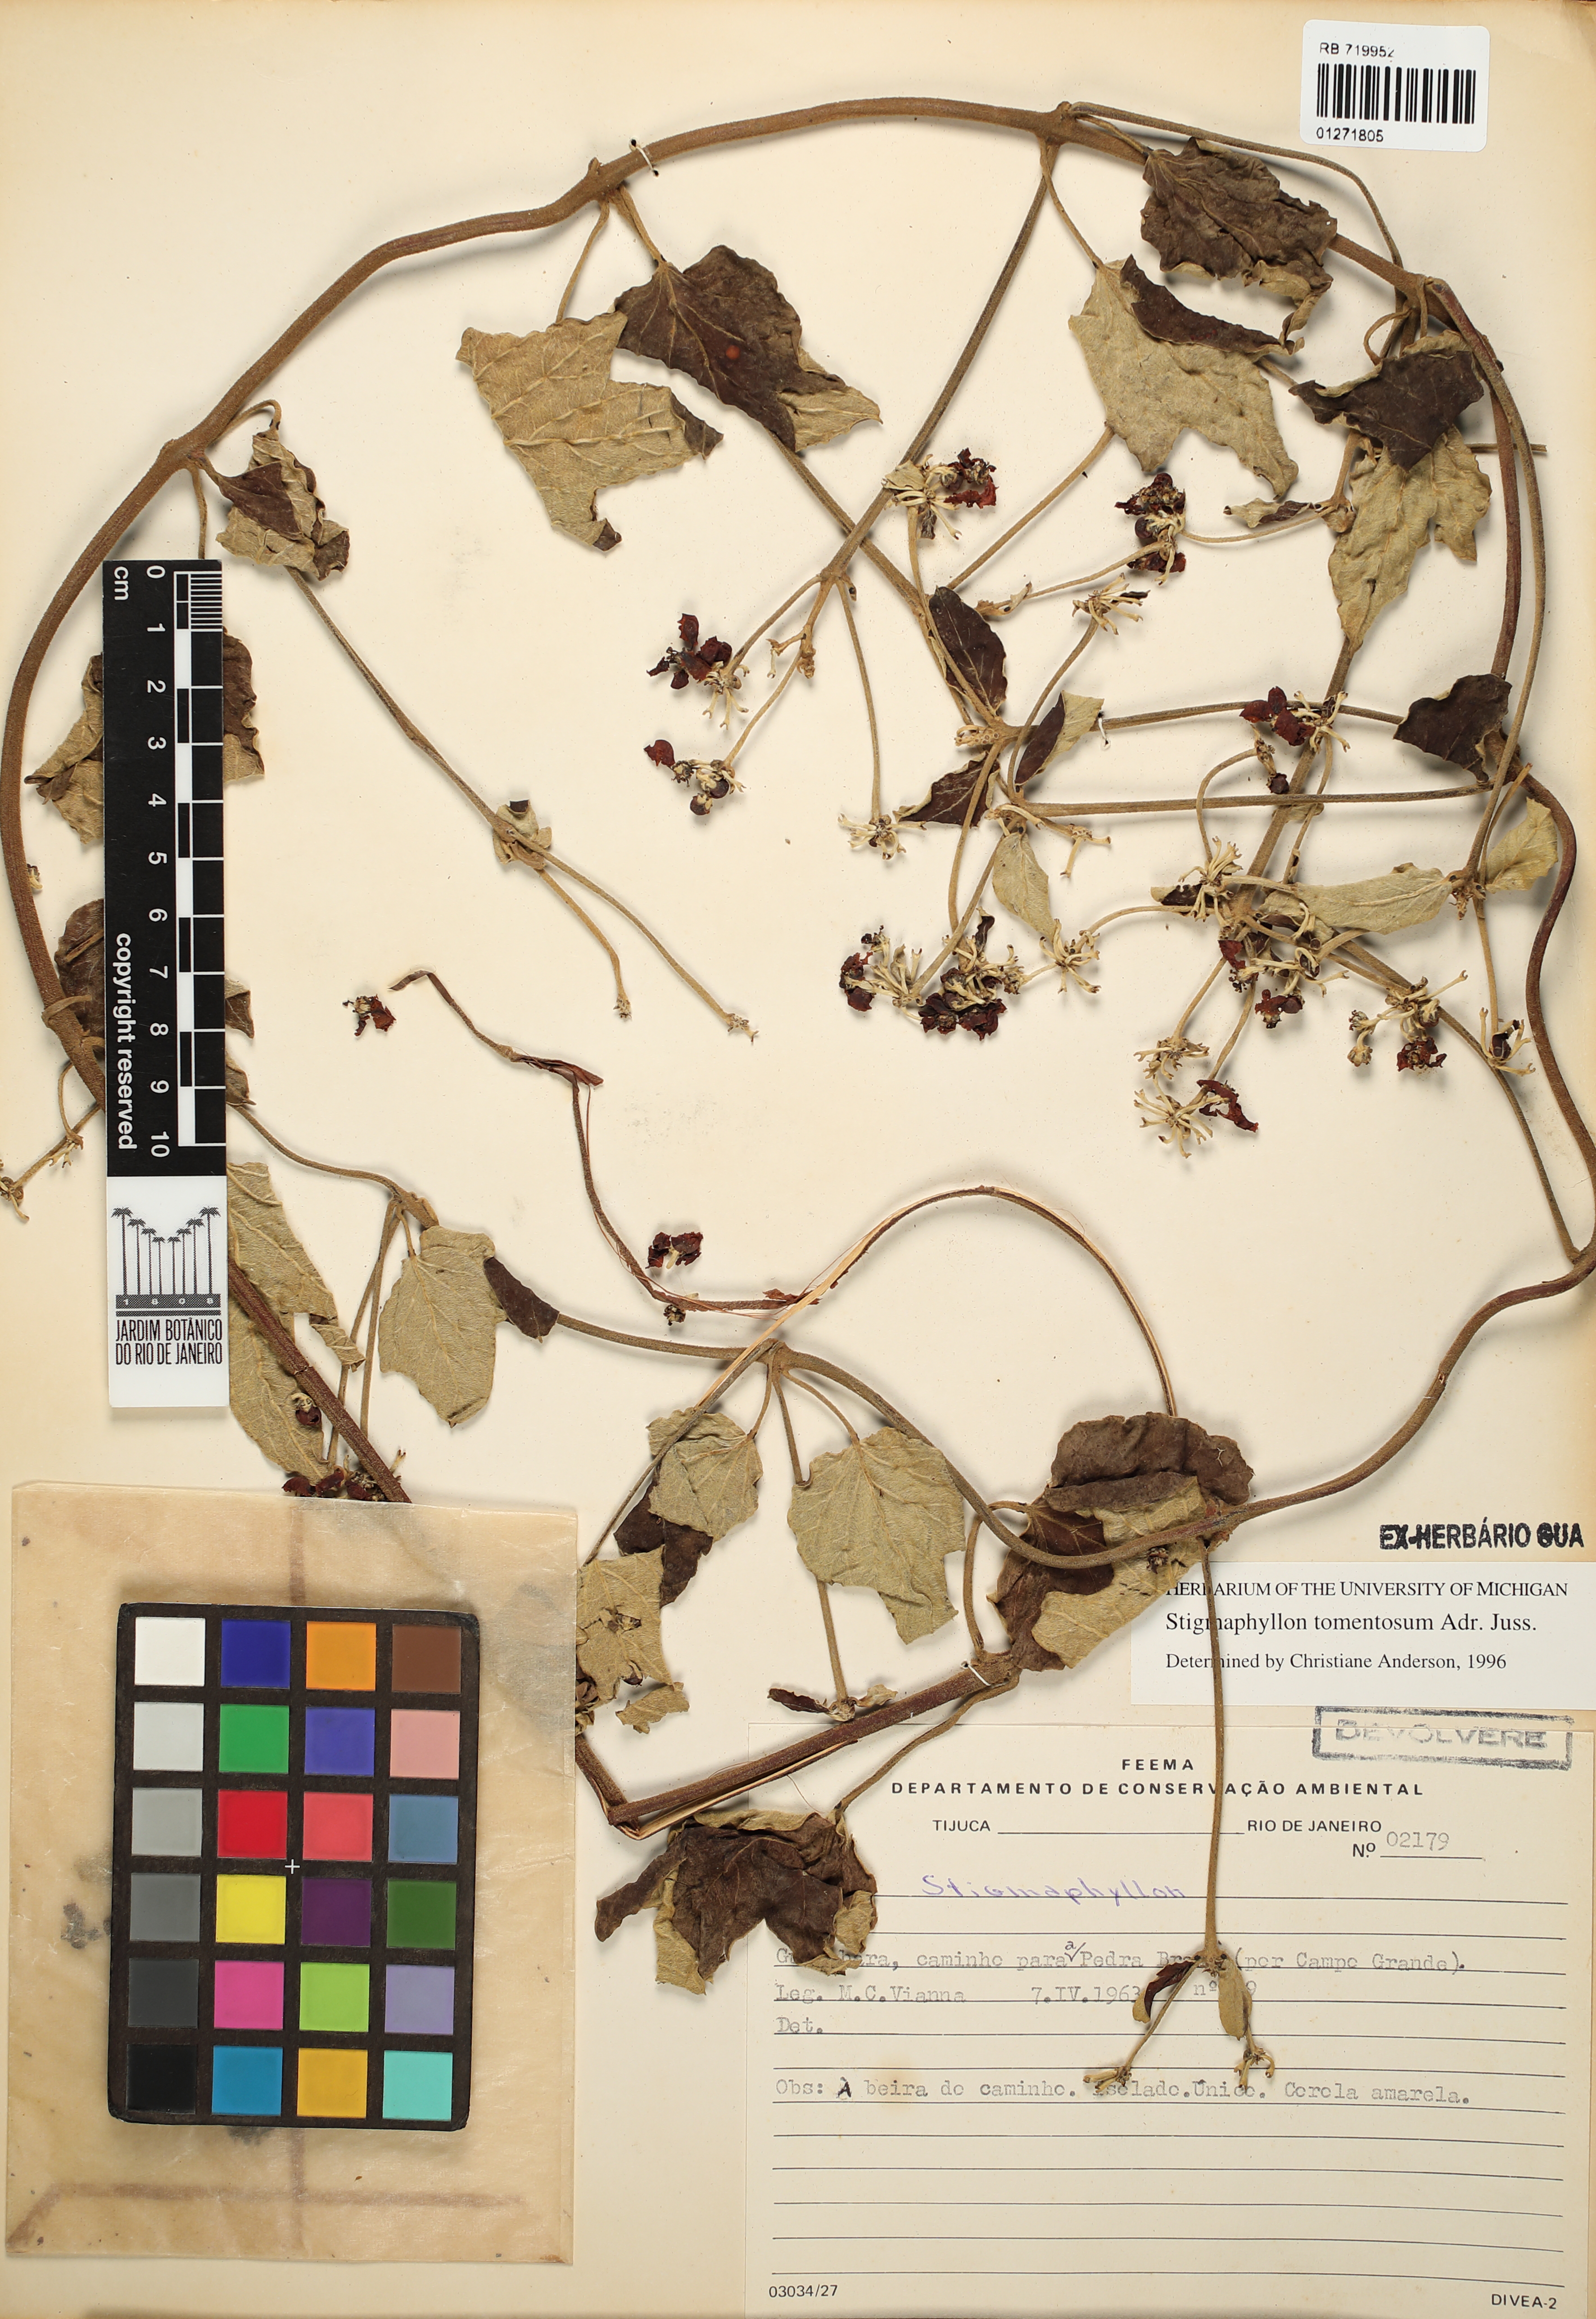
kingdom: Plantae
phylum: Tracheophyta
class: Magnoliopsida
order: Malpighiales
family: Malpighiaceae
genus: Stigmaphyllon
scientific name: Stigmaphyllon tomentosum
